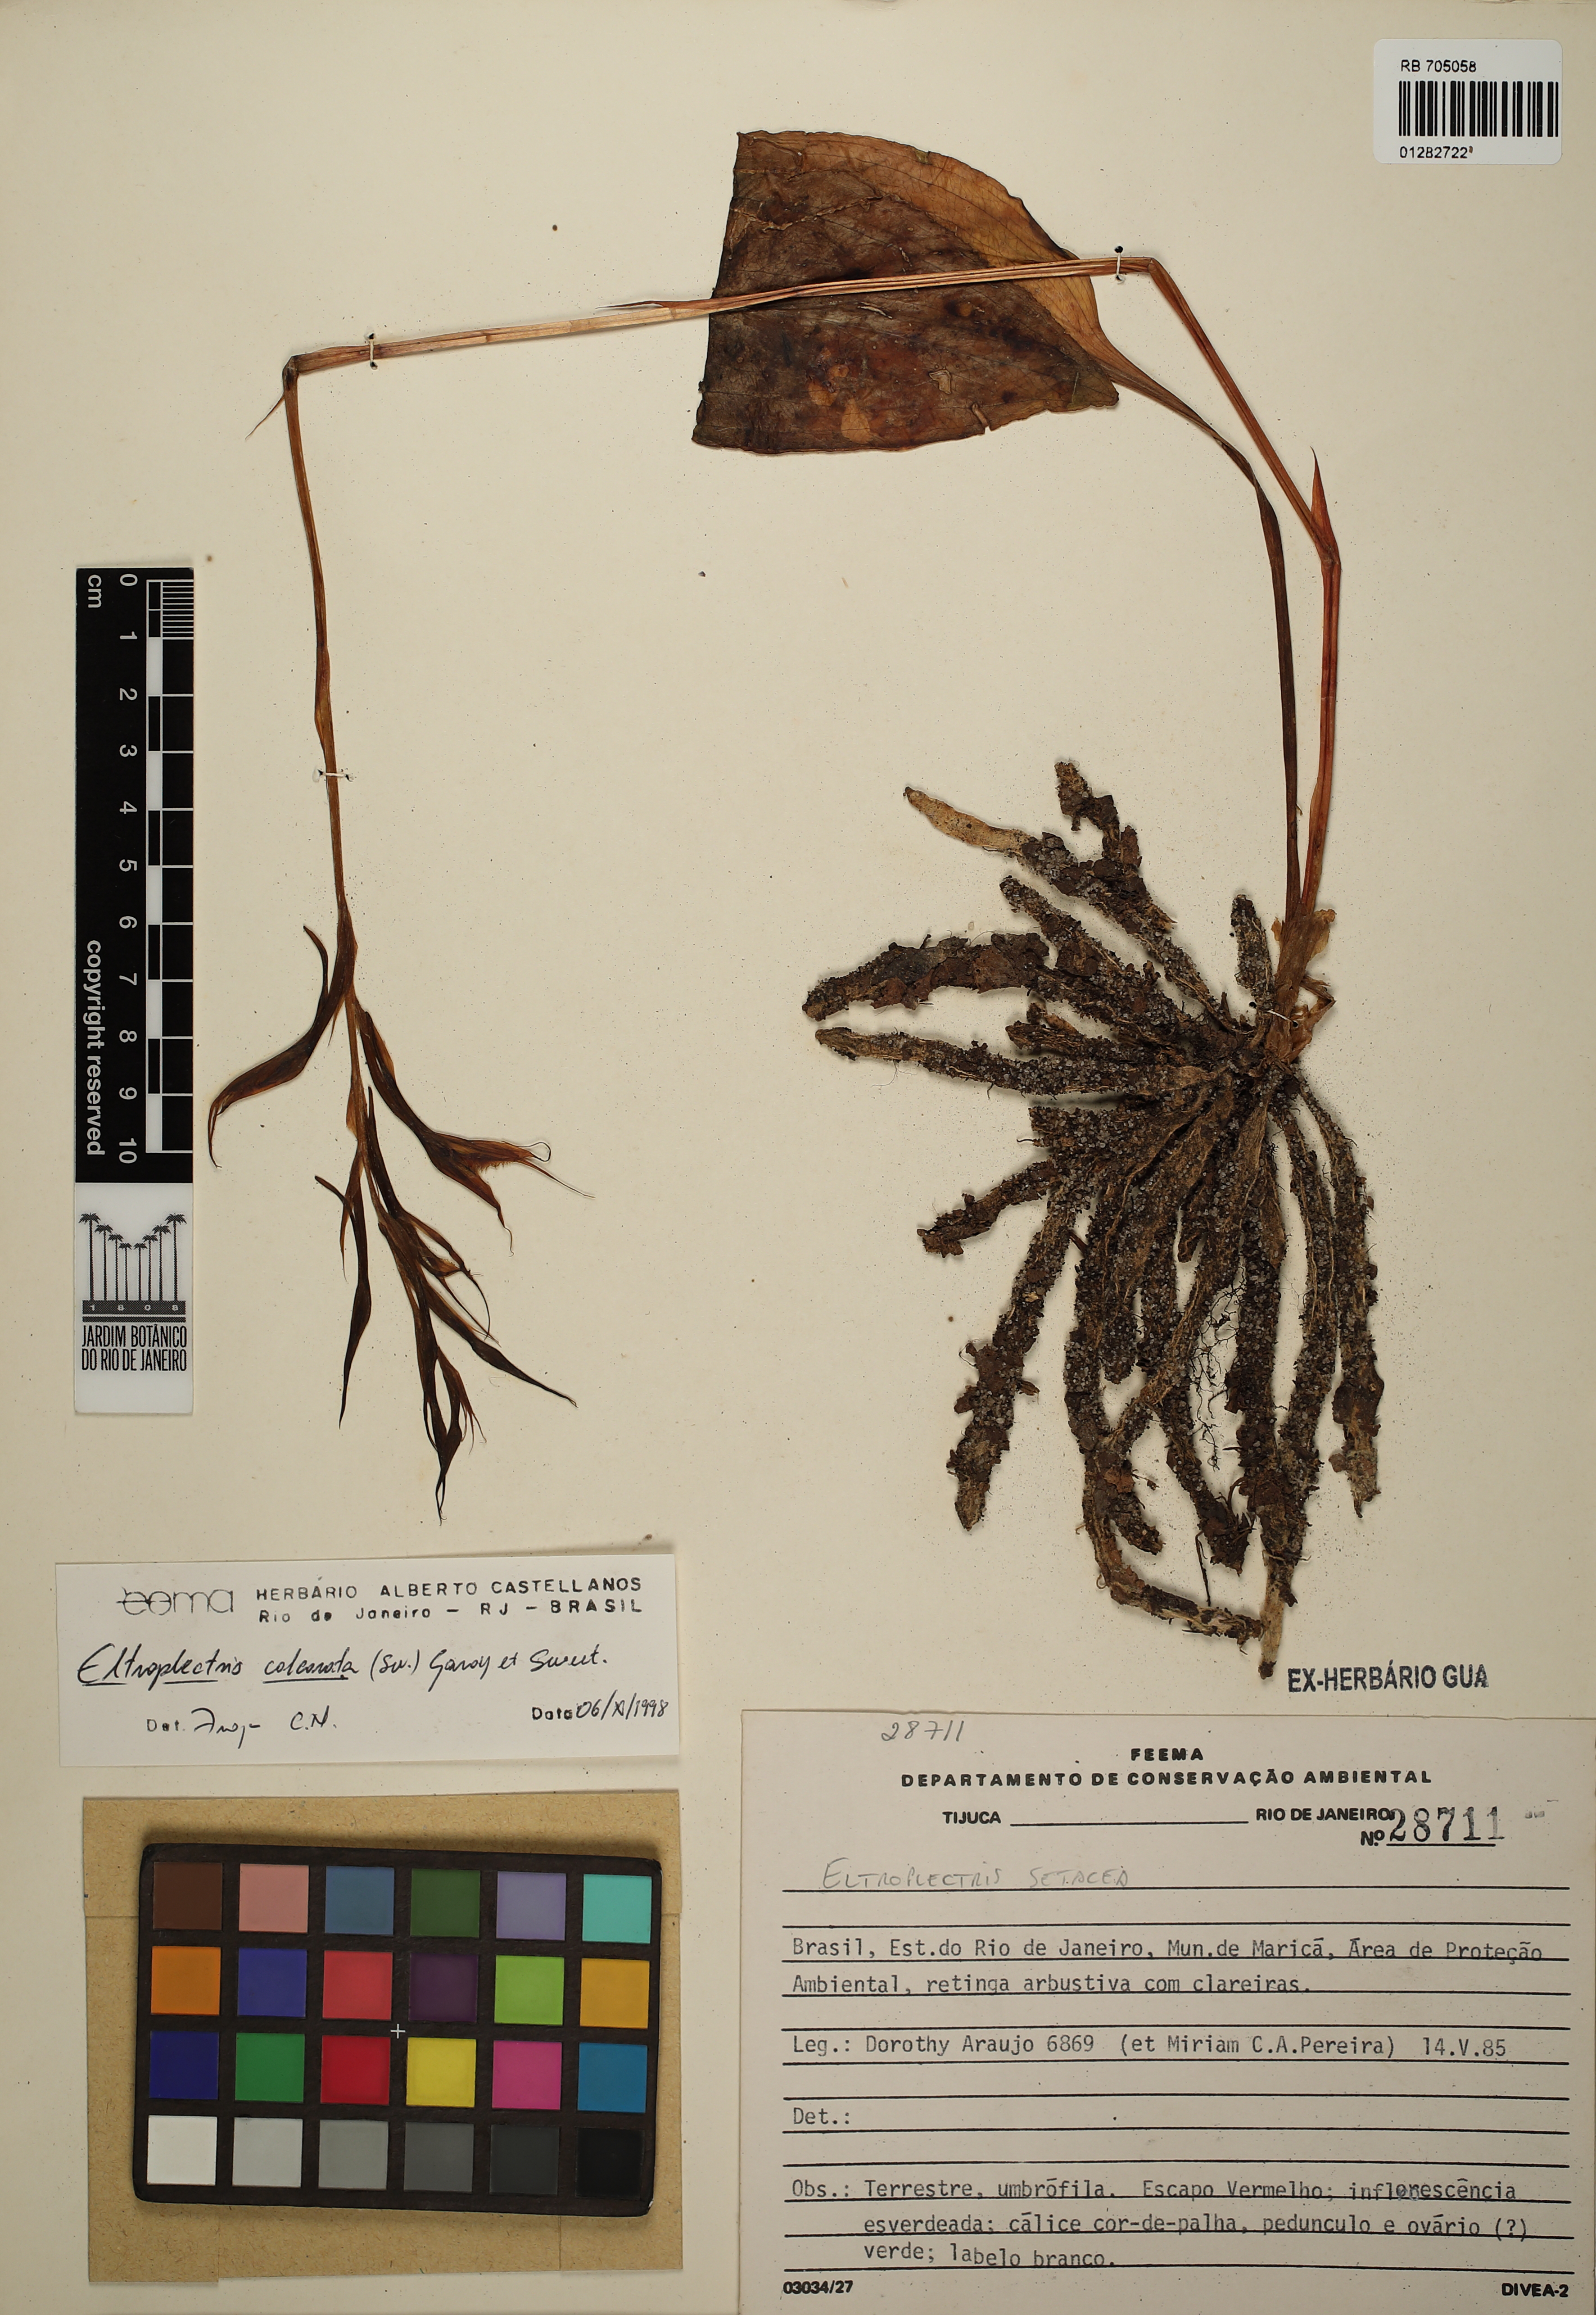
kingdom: Plantae
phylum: Tracheophyta
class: Liliopsida
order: Asparagales
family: Orchidaceae
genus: Eltroplectris
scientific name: Eltroplectris calcarata
